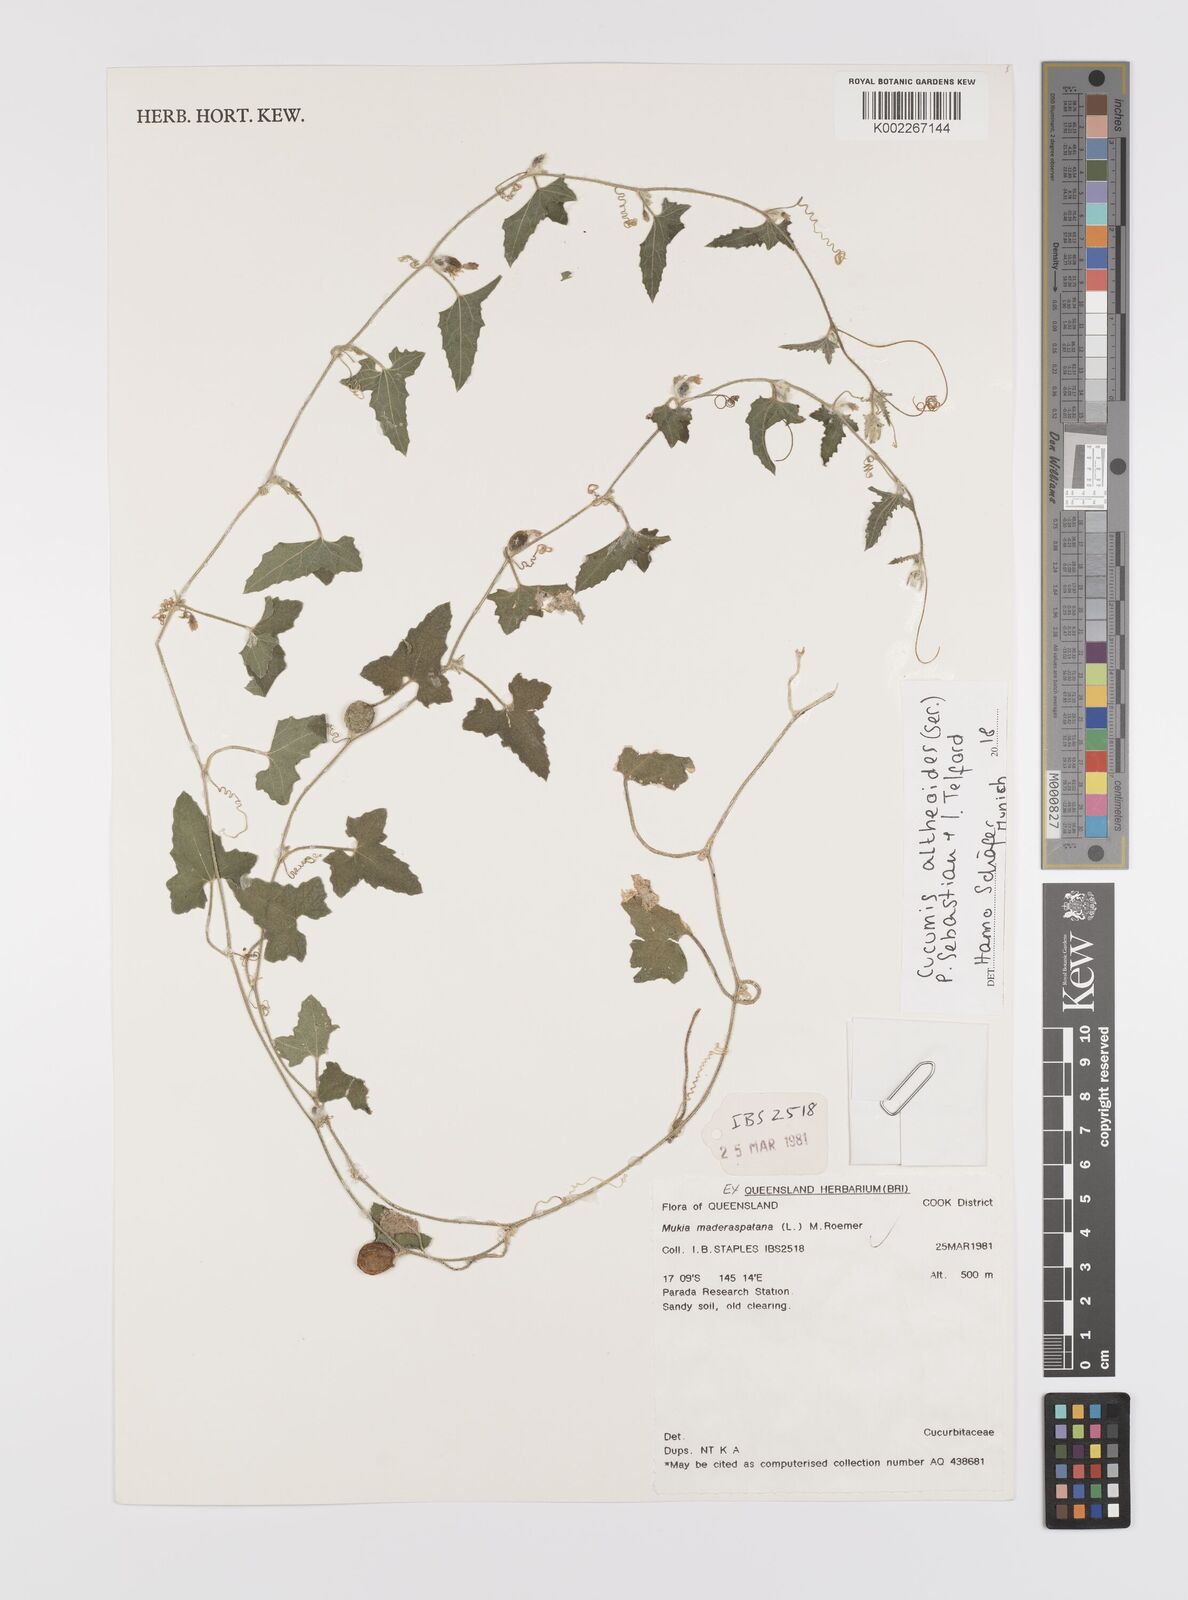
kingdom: Plantae
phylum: Tracheophyta
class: Magnoliopsida
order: Cucurbitales
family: Cucurbitaceae
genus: Cucumis
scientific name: Cucumis althaeoides
